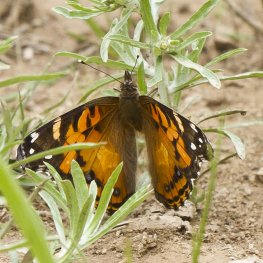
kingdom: Animalia
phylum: Arthropoda
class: Insecta
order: Lepidoptera
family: Nymphalidae
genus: Vanessa
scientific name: Vanessa virginiensis
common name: American Lady
